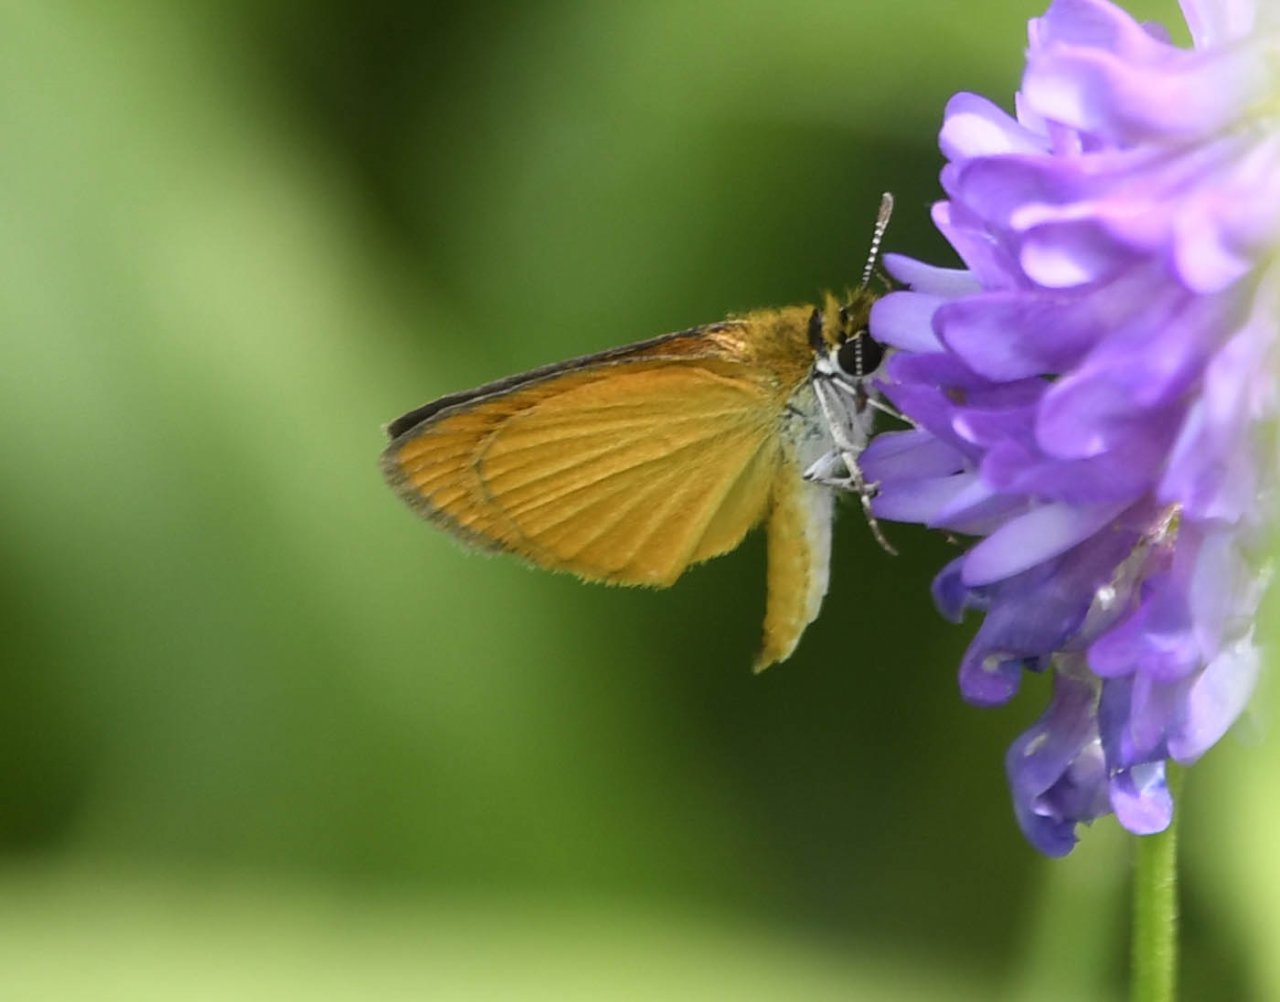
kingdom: Animalia
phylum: Arthropoda
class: Insecta
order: Lepidoptera
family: Hesperiidae
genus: Ancyloxypha
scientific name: Ancyloxypha numitor
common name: Least Skipper
